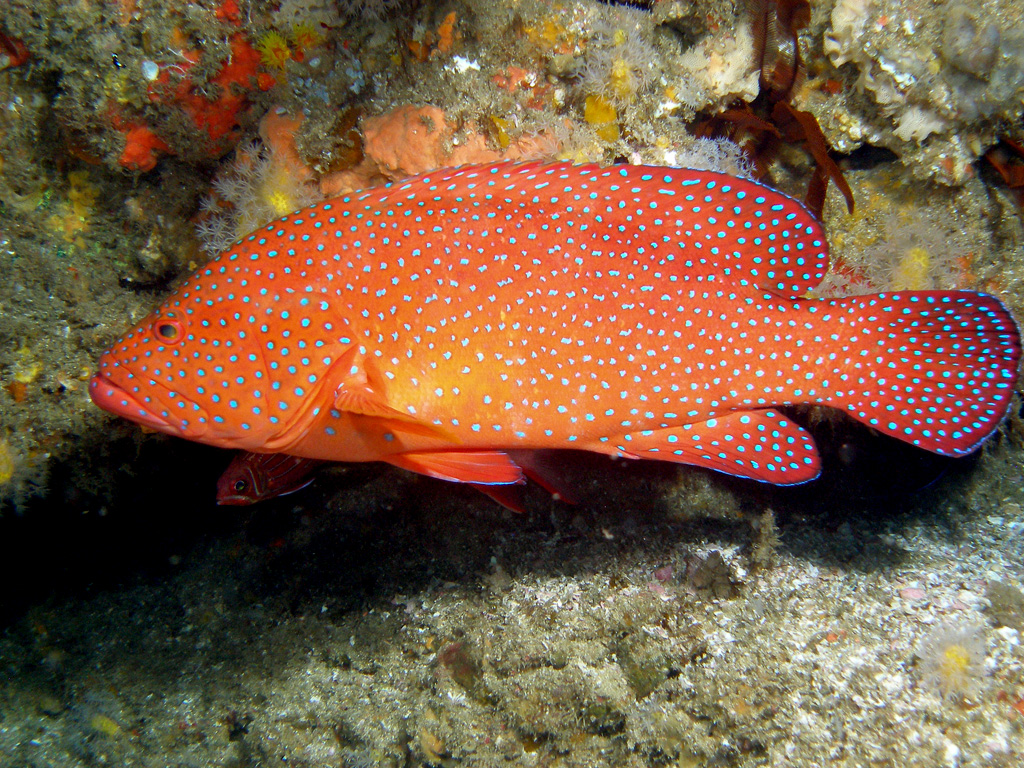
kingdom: Animalia
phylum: Chordata
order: Perciformes
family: Serranidae
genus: Cephalopholis
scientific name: Cephalopholis miniata
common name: Coral hind
